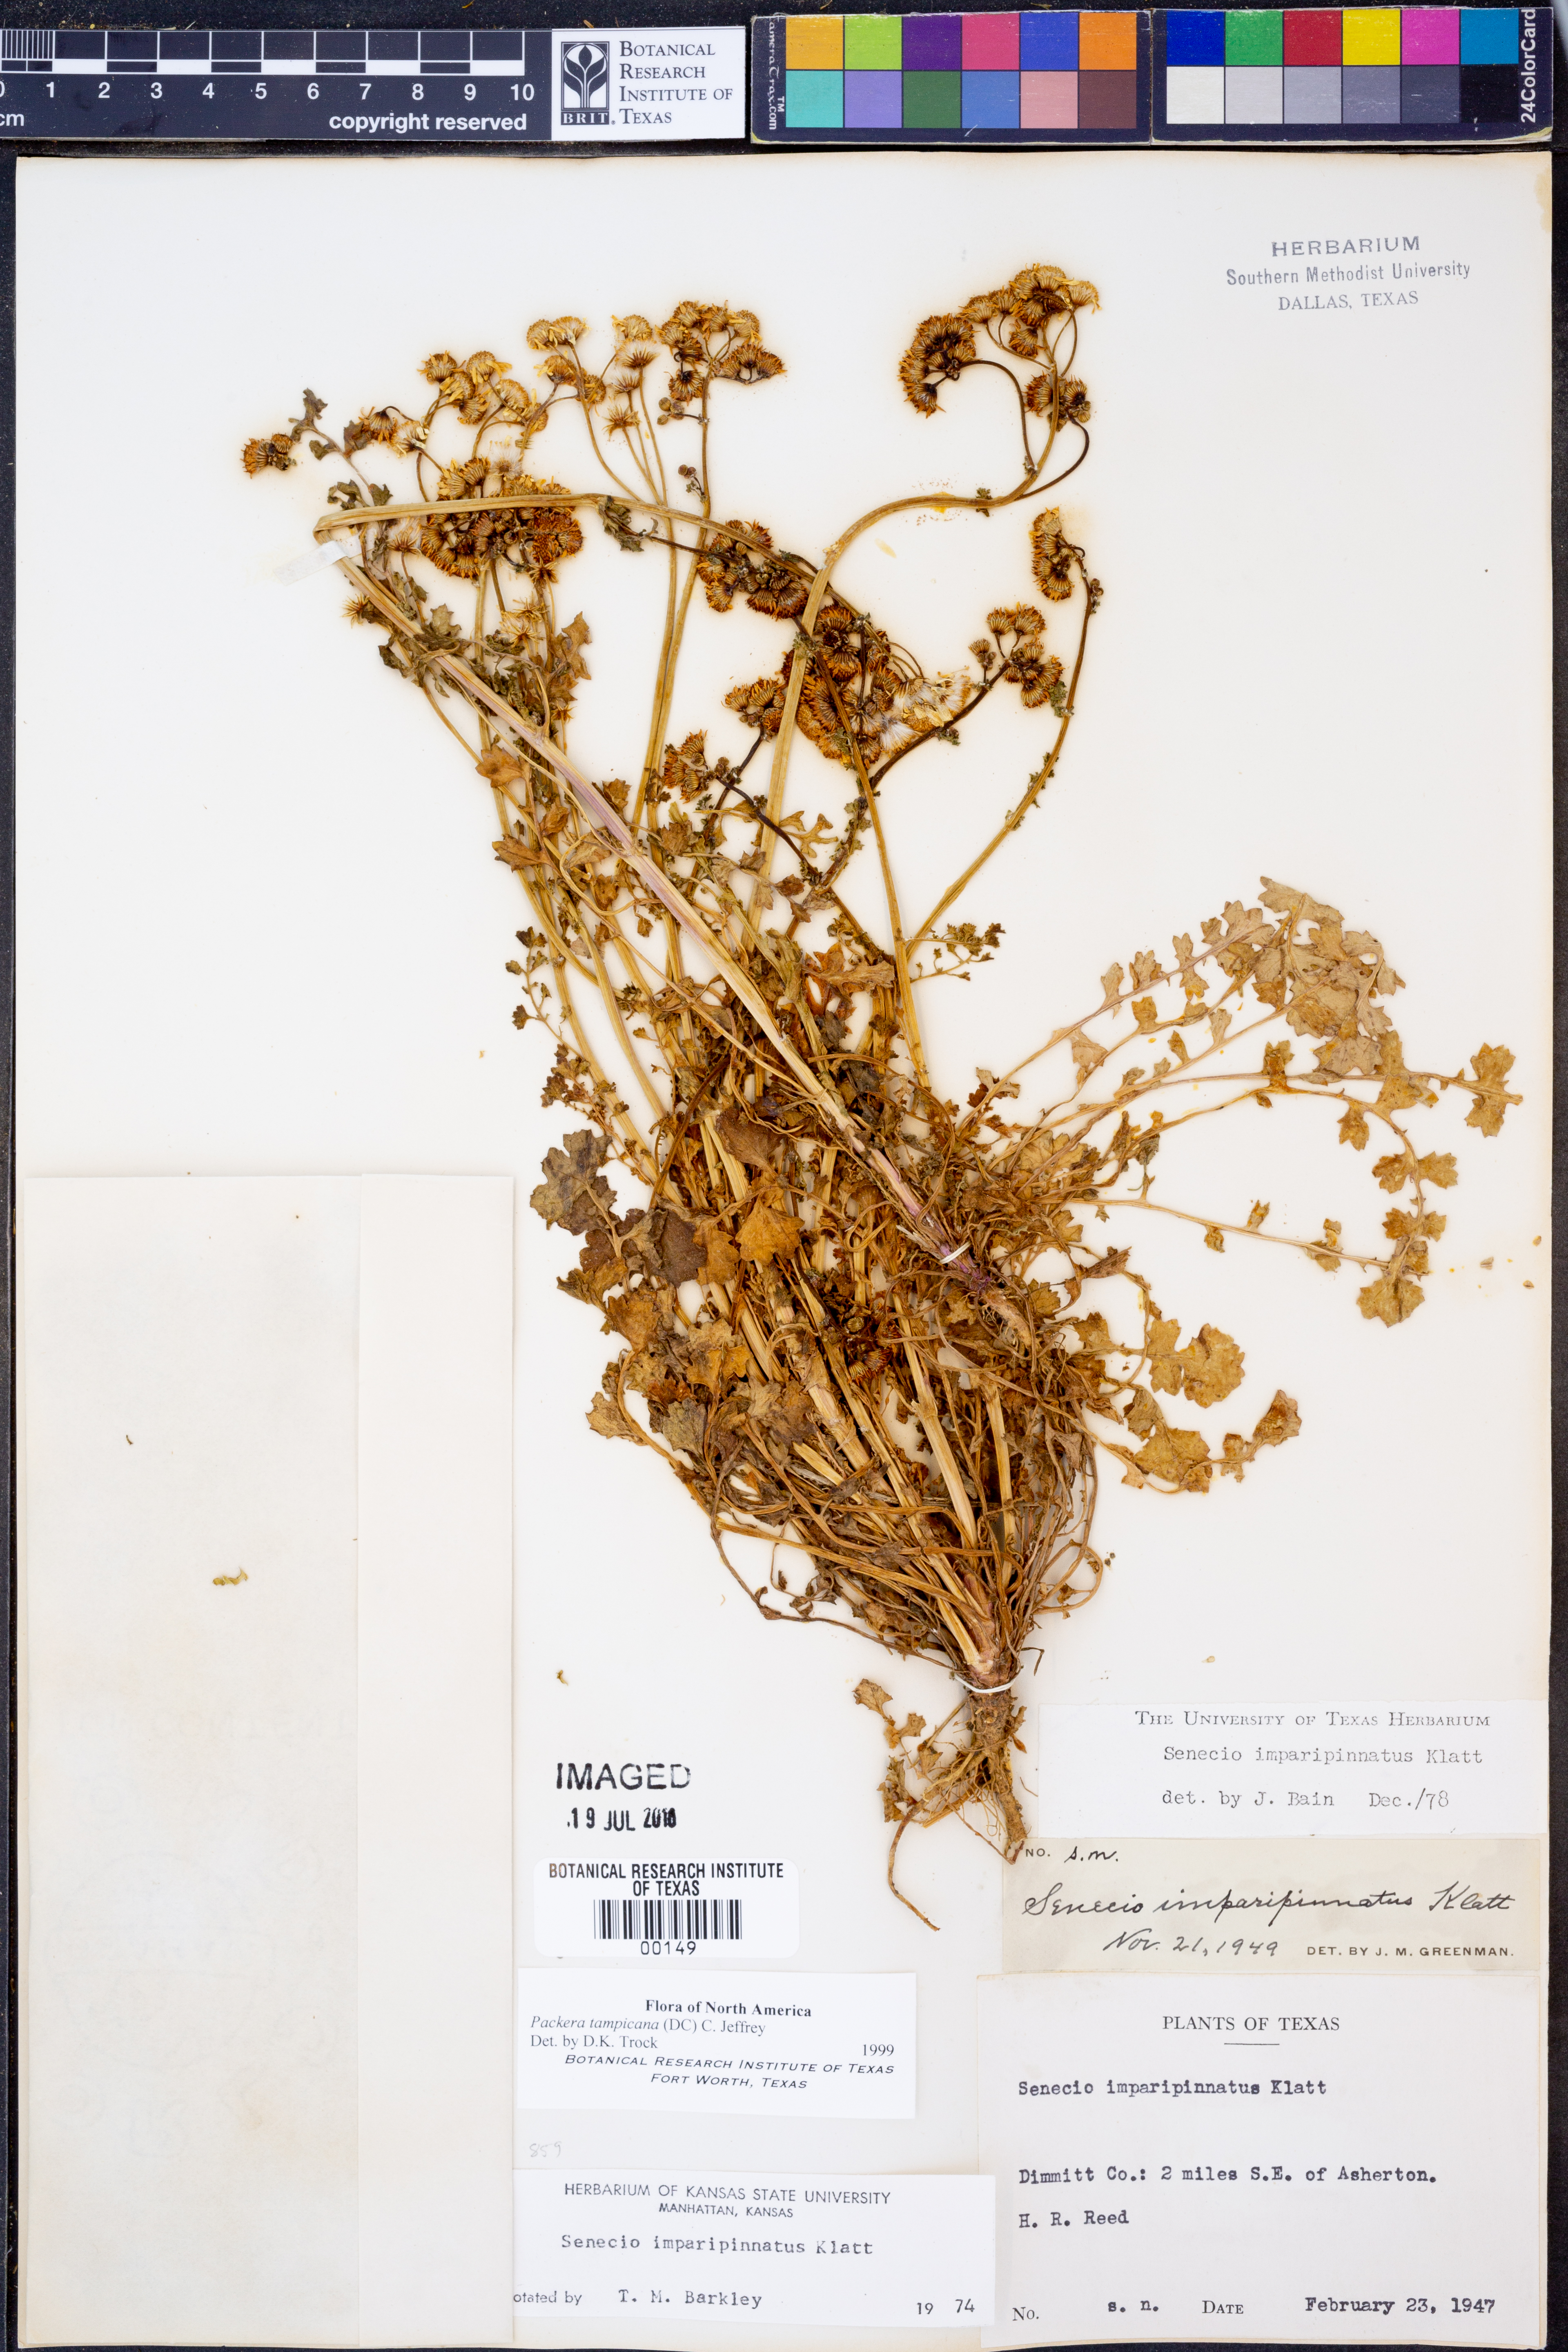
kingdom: Plantae
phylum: Tracheophyta
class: Magnoliopsida
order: Asterales
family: Asteraceae
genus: Packera
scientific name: Packera tampicana
